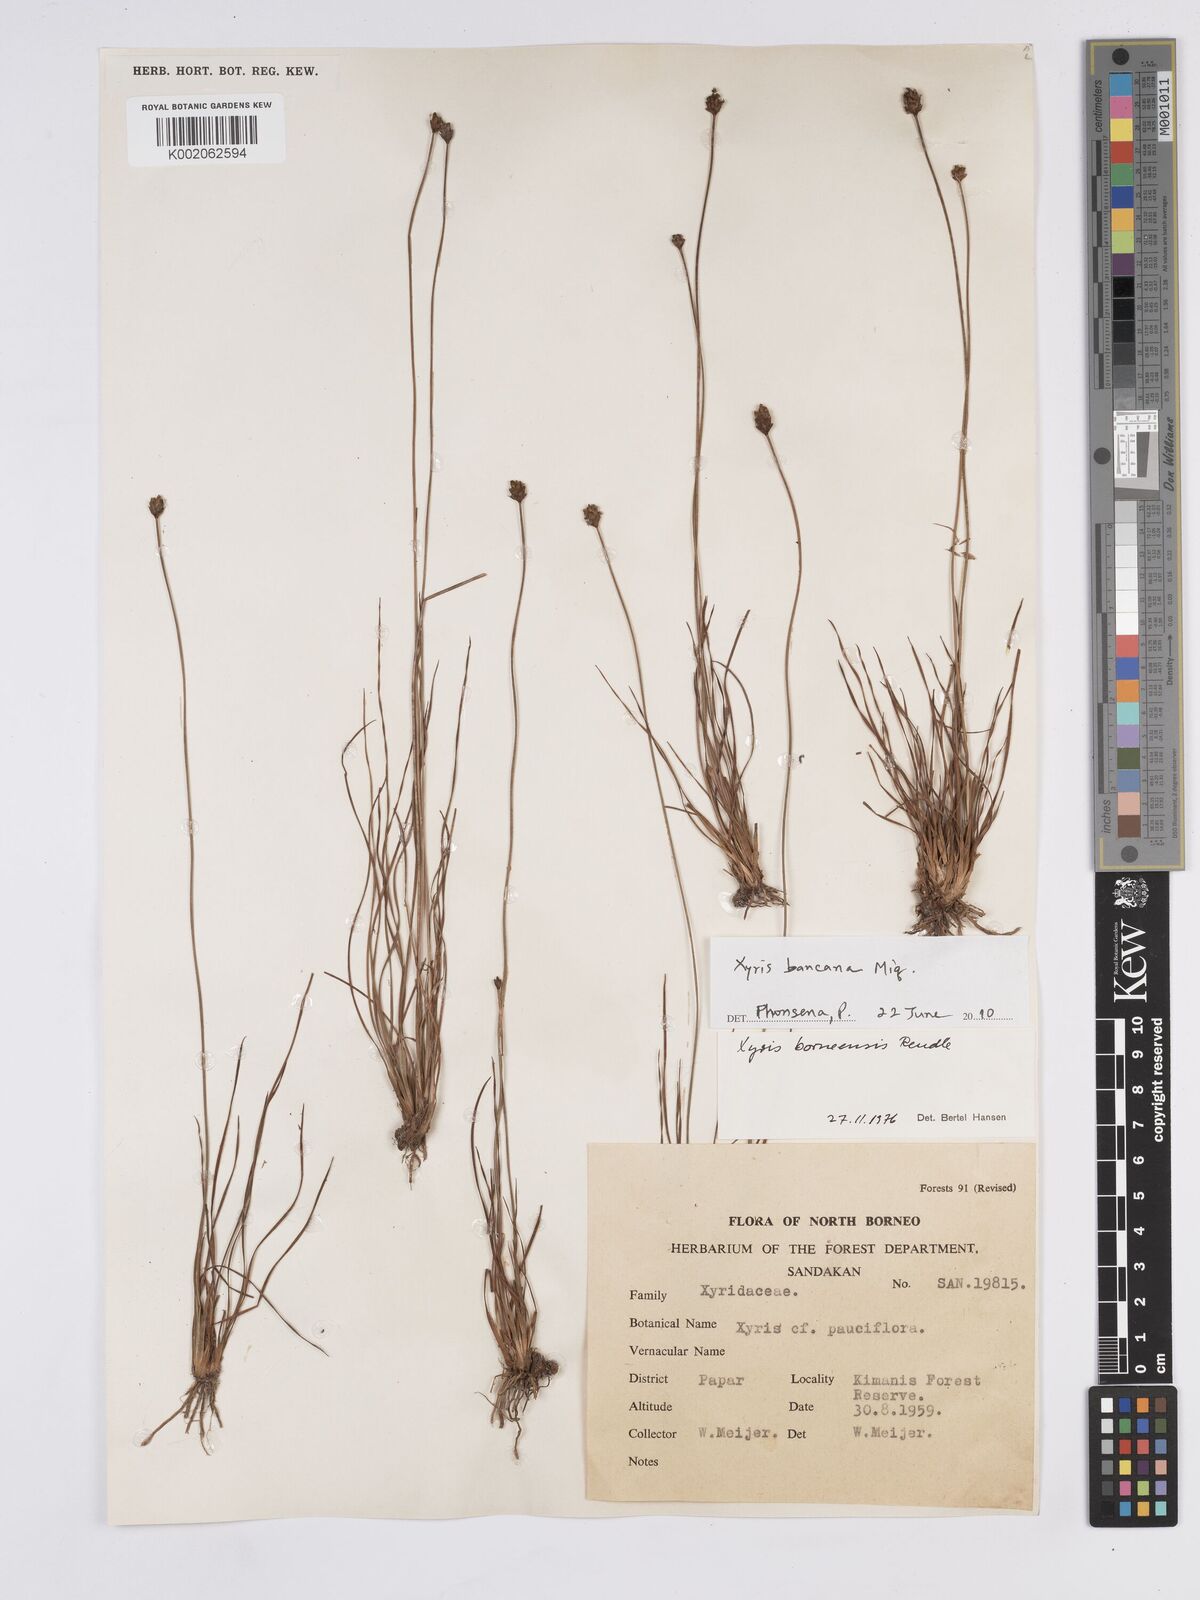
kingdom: Plantae
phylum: Tracheophyta
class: Liliopsida
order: Poales
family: Xyridaceae
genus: Xyris
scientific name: Xyris bancana
